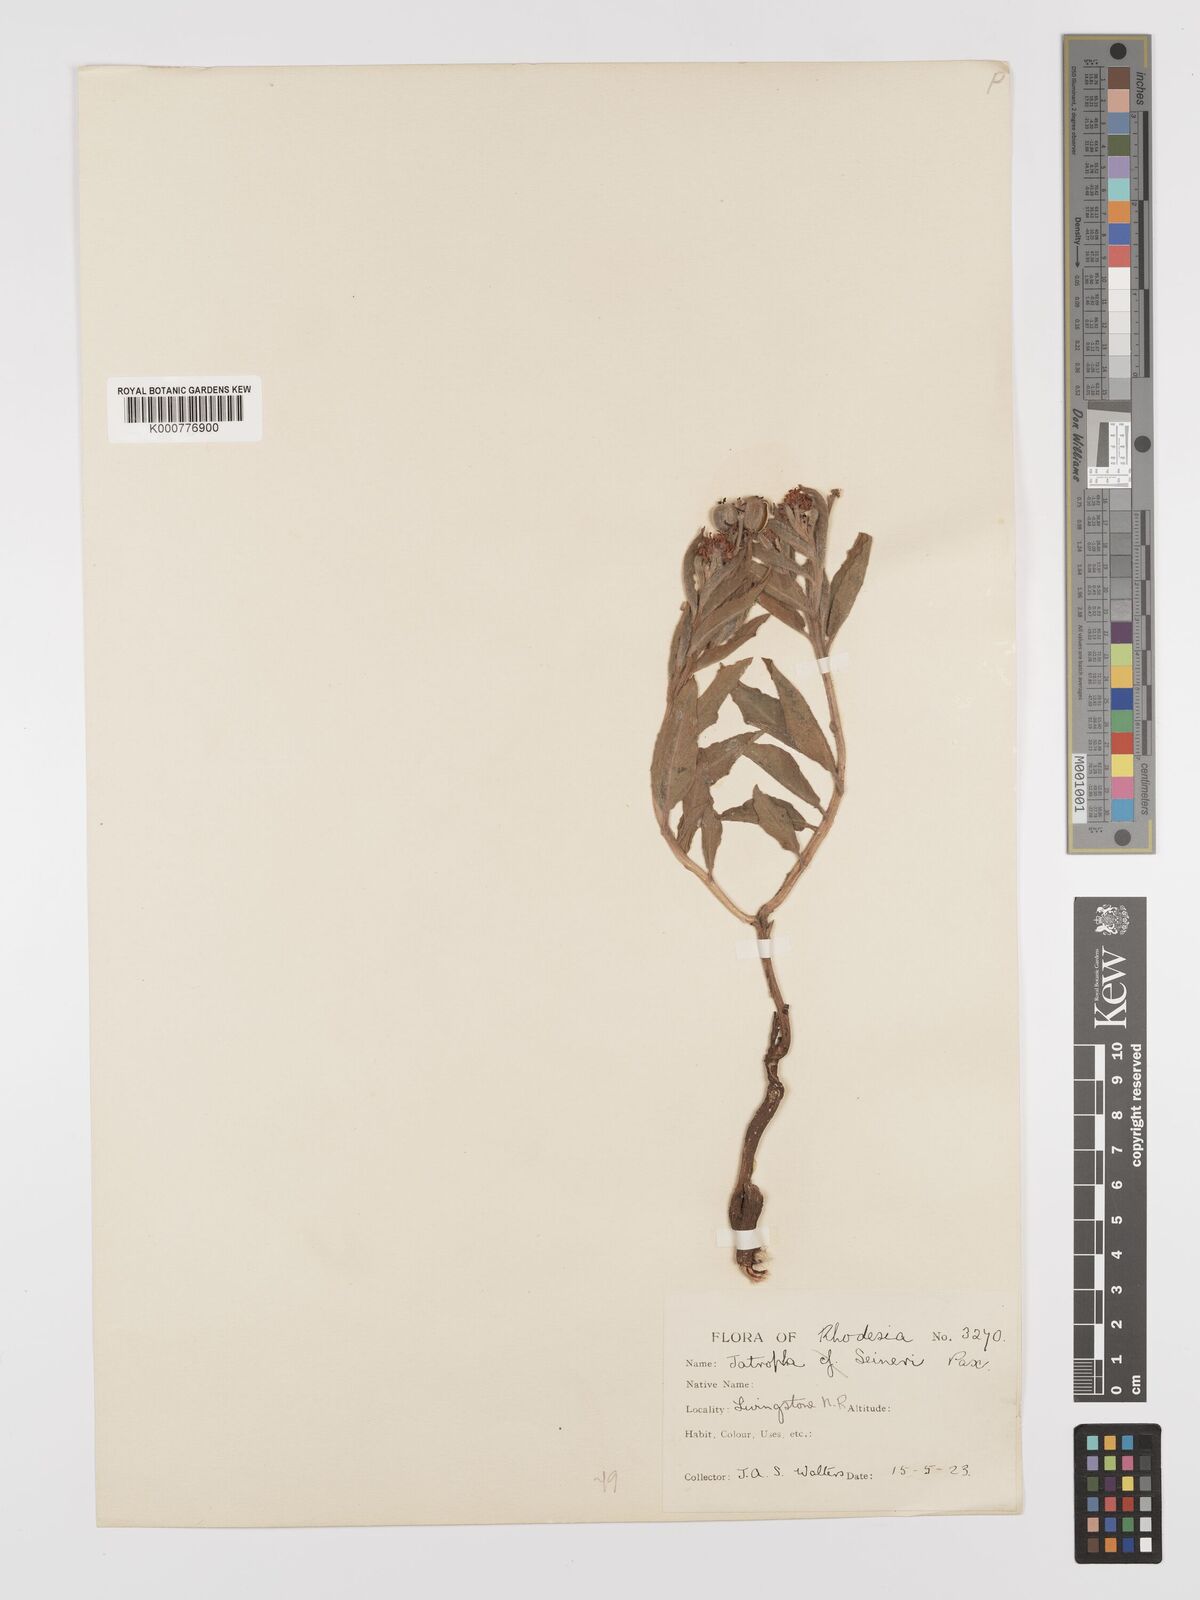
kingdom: Plantae
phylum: Tracheophyta
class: Magnoliopsida
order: Malpighiales
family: Euphorbiaceae
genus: Jatropha
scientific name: Jatropha seineri
